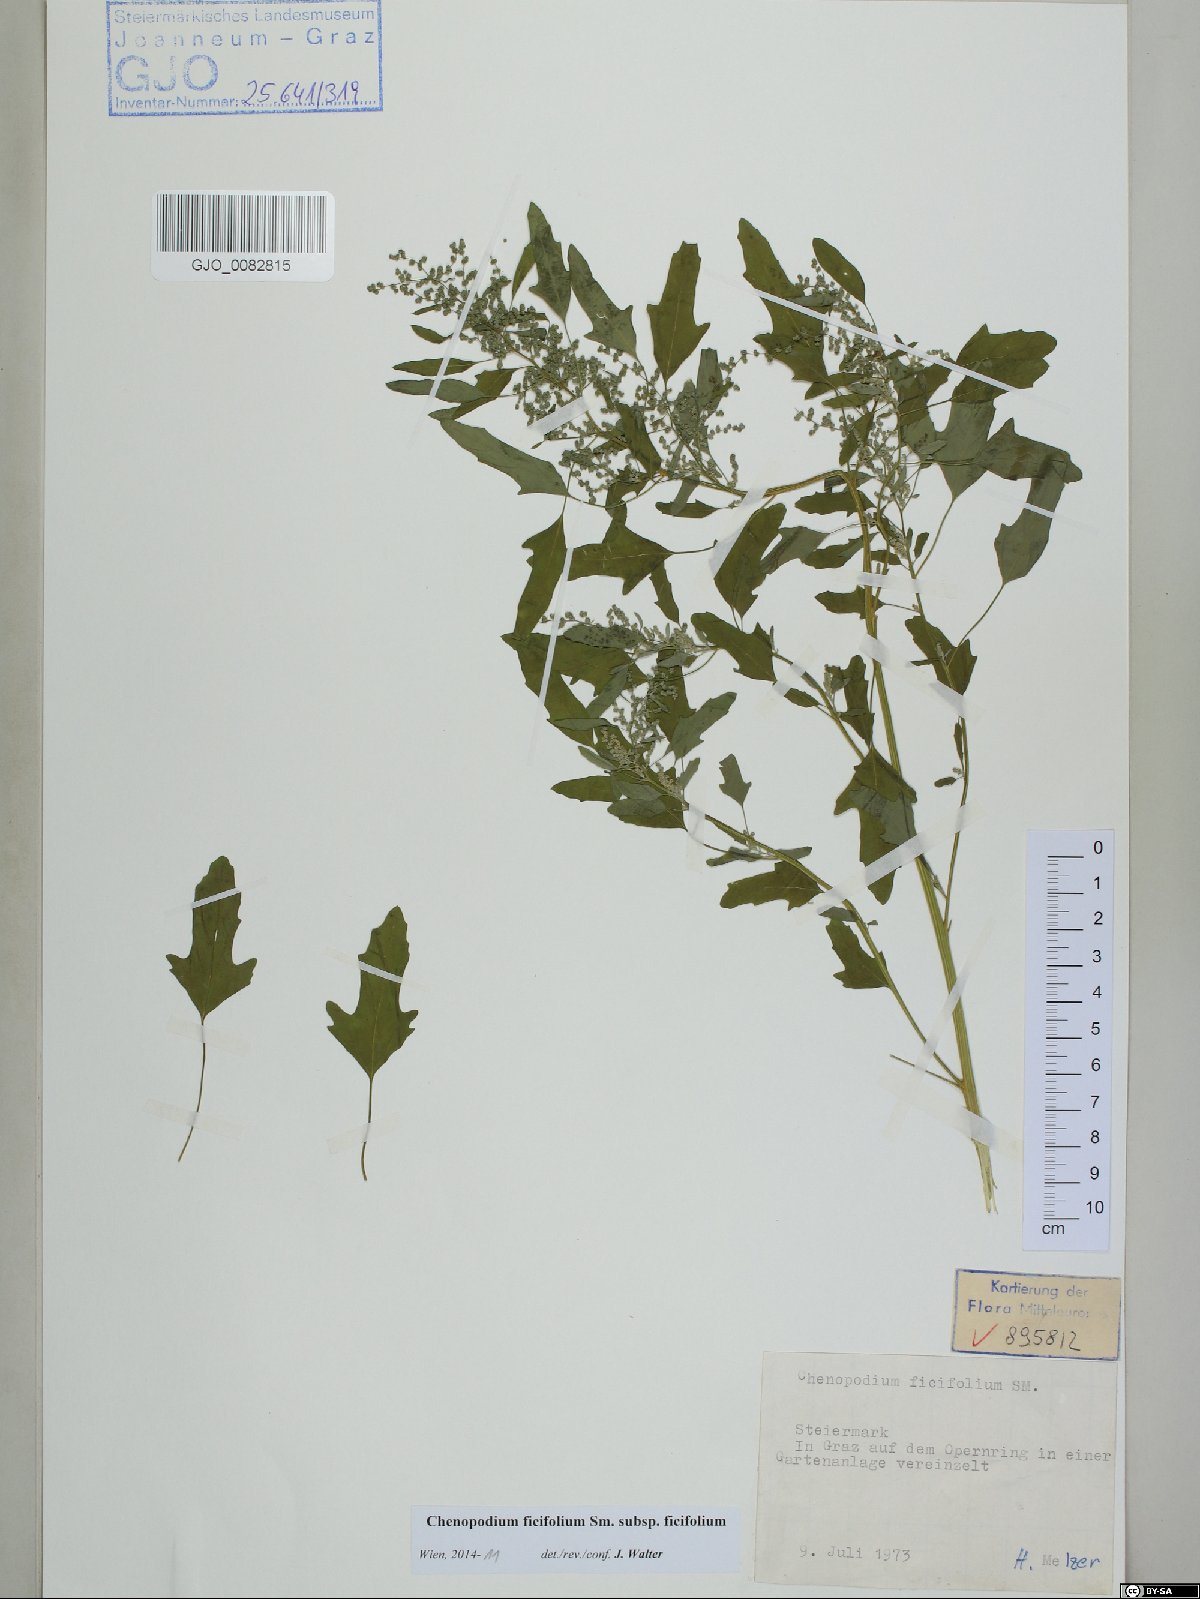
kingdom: Plantae
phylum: Tracheophyta
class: Magnoliopsida
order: Caryophyllales
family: Amaranthaceae
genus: Chenopodium
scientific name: Chenopodium ficifolium
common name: Fig-leaved goosefoot
